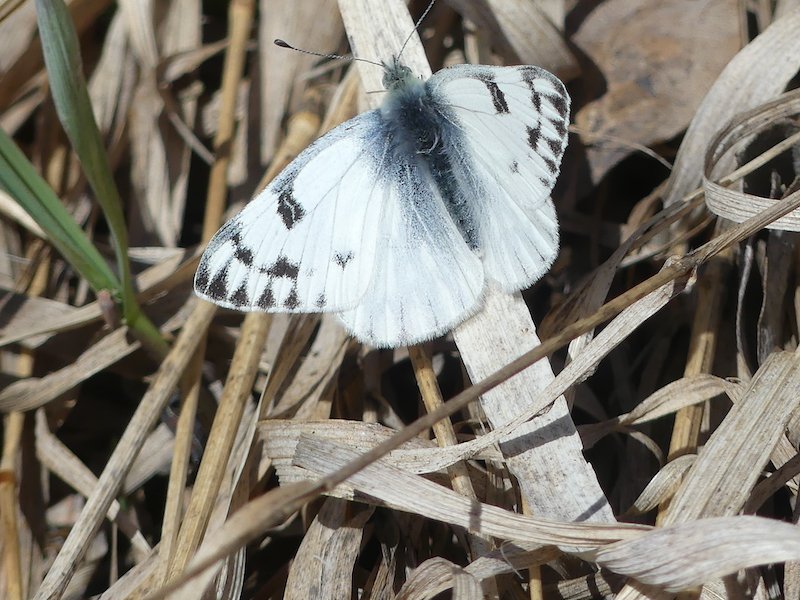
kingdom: Animalia
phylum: Arthropoda
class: Insecta
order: Lepidoptera
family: Pieridae
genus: Pontia
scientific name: Pontia occidentalis
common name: Western White
